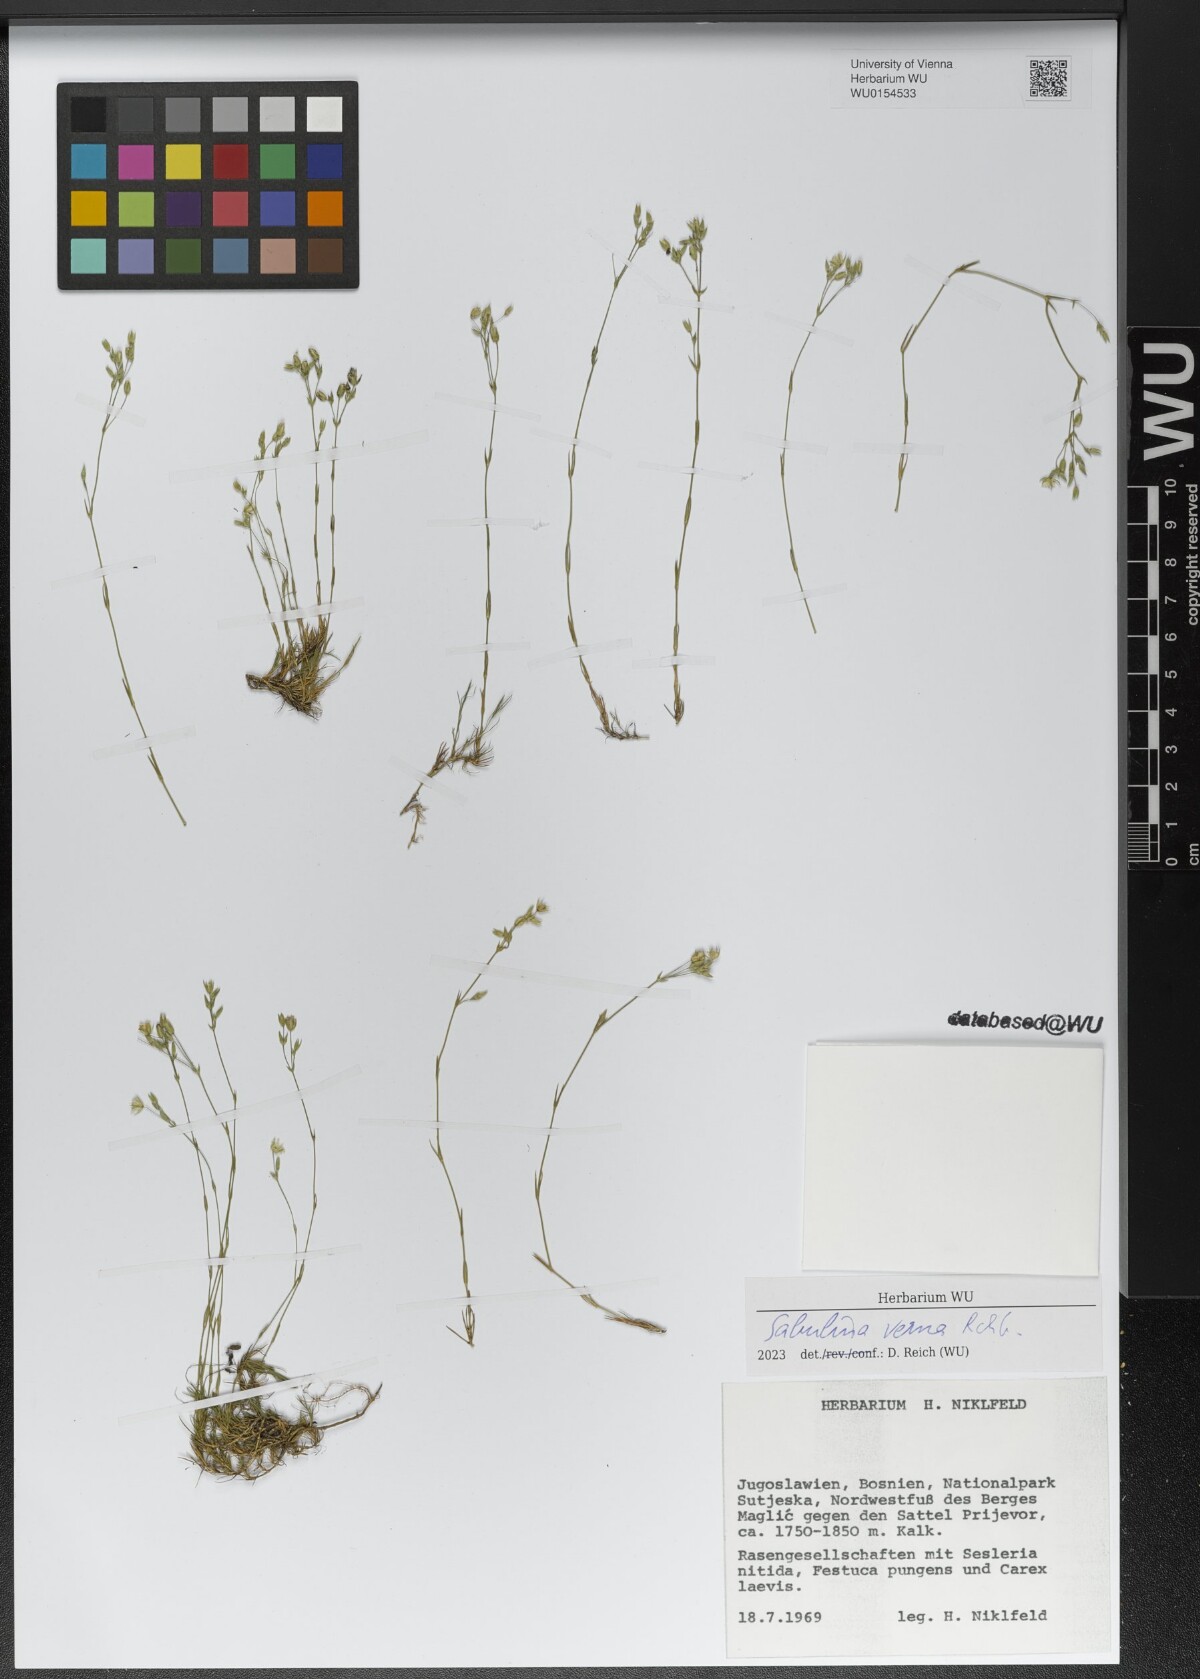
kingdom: Plantae
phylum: Tracheophyta
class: Magnoliopsida
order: Caryophyllales
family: Caryophyllaceae
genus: Sabulina
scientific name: Sabulina verna
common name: Spring sandwort
